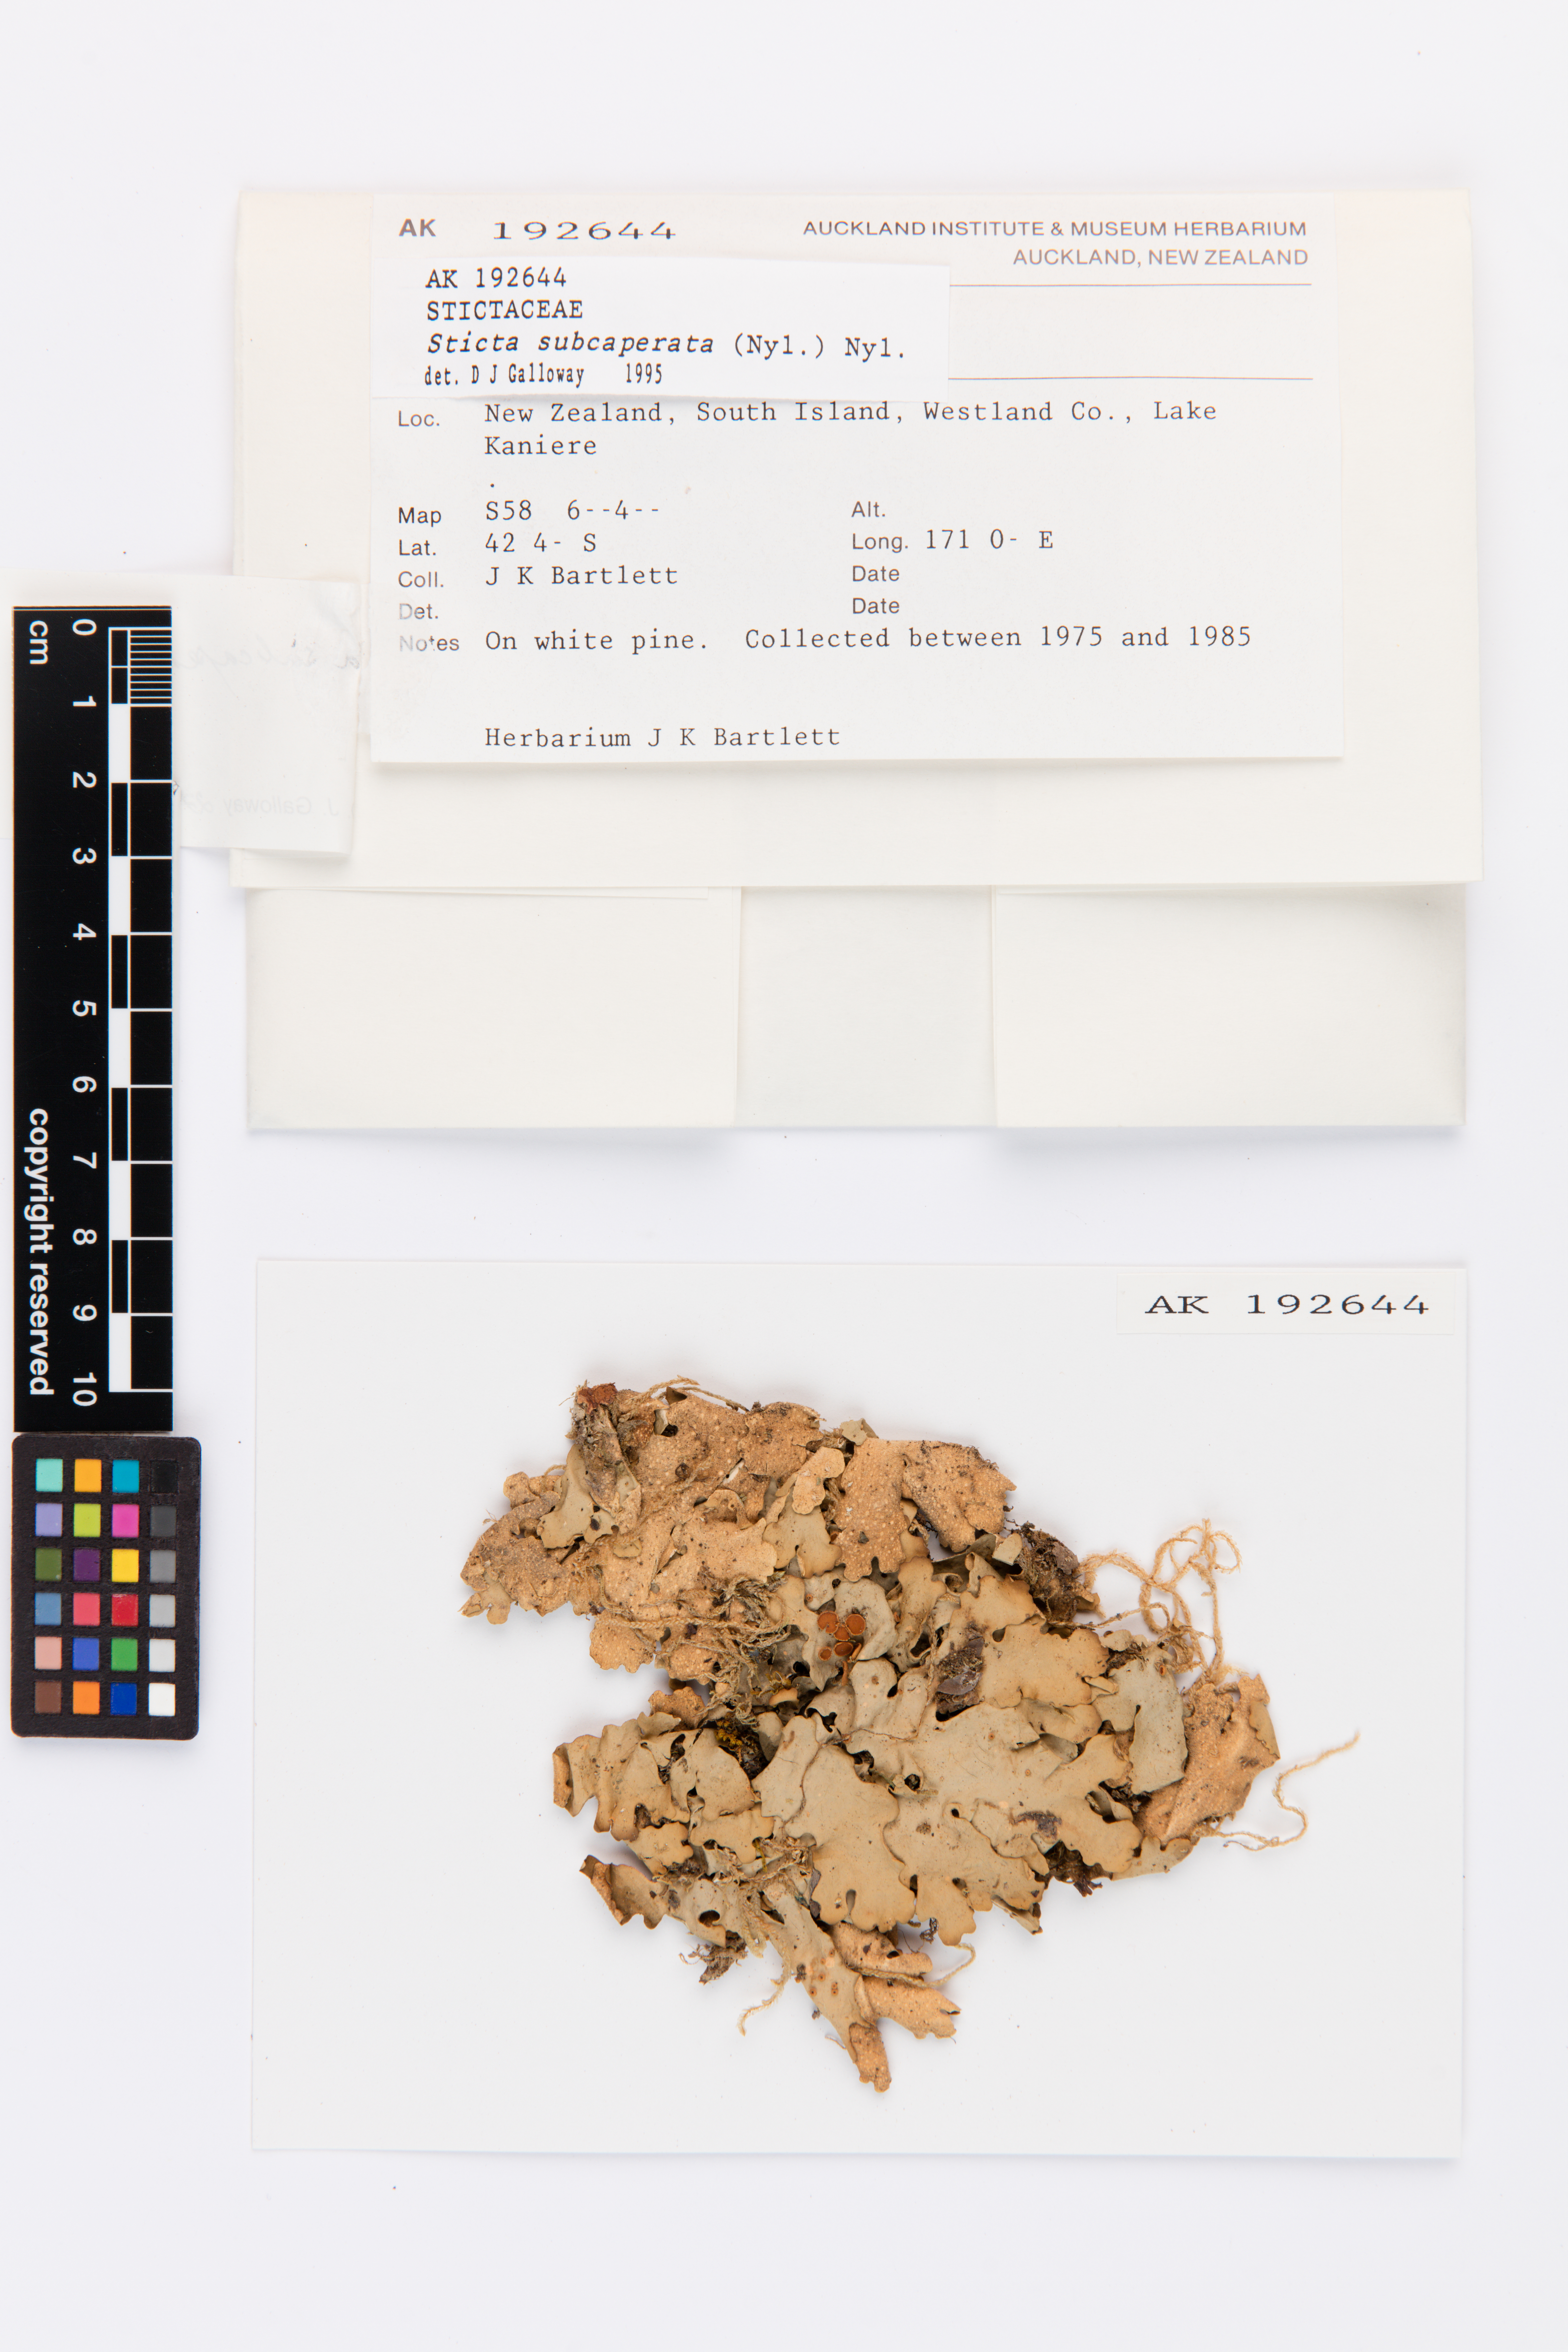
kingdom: Fungi
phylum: Ascomycota
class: Lecanoromycetes
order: Peltigerales
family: Lobariaceae
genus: Sticta
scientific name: Sticta subcaperata
